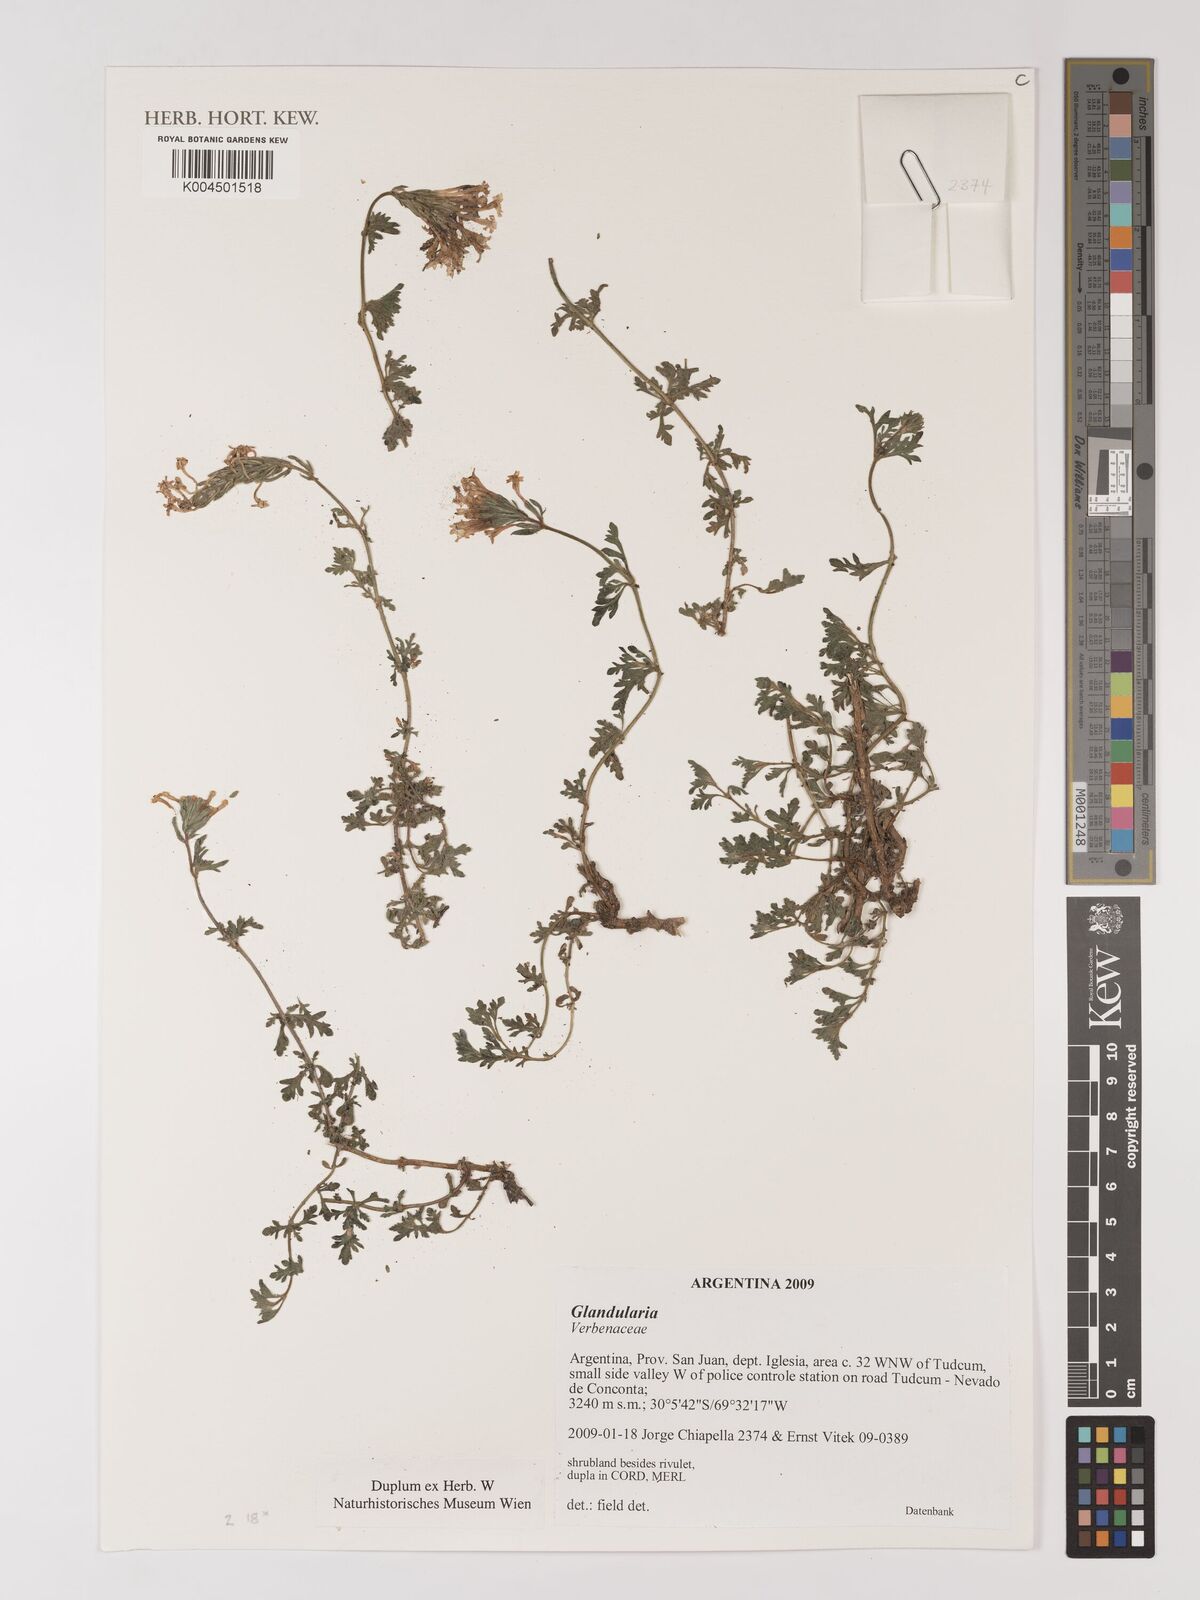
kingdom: Plantae
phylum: Tracheophyta
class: Magnoliopsida
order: Lamiales
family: Verbenaceae
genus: Verbena
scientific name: Verbena
